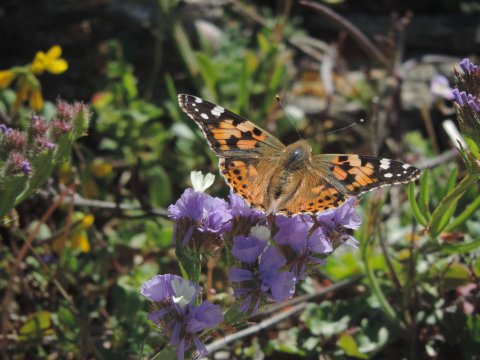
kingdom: Animalia
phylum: Arthropoda
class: Insecta
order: Lepidoptera
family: Nymphalidae
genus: Vanessa
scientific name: Vanessa cardui
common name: Painted Lady
